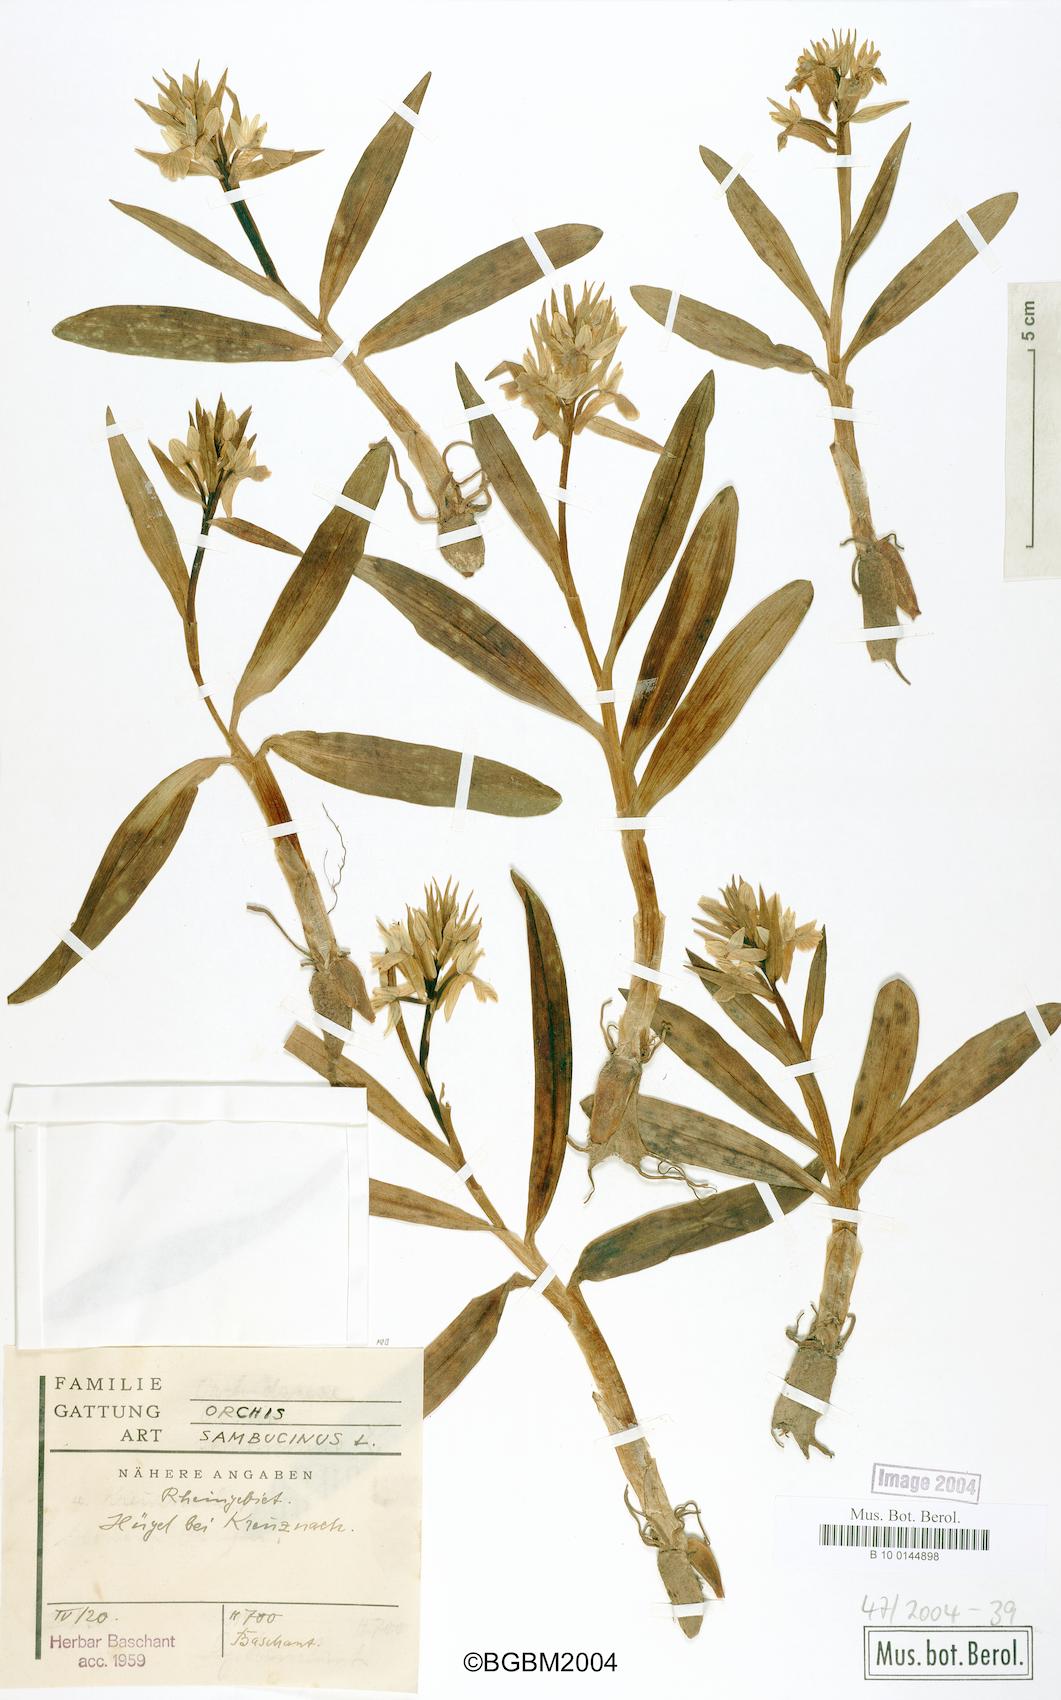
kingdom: Plantae
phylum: Tracheophyta
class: Liliopsida
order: Asparagales
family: Orchidaceae
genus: Dactylorhiza
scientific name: Dactylorhiza sambucina
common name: Elder-flowered orchid
